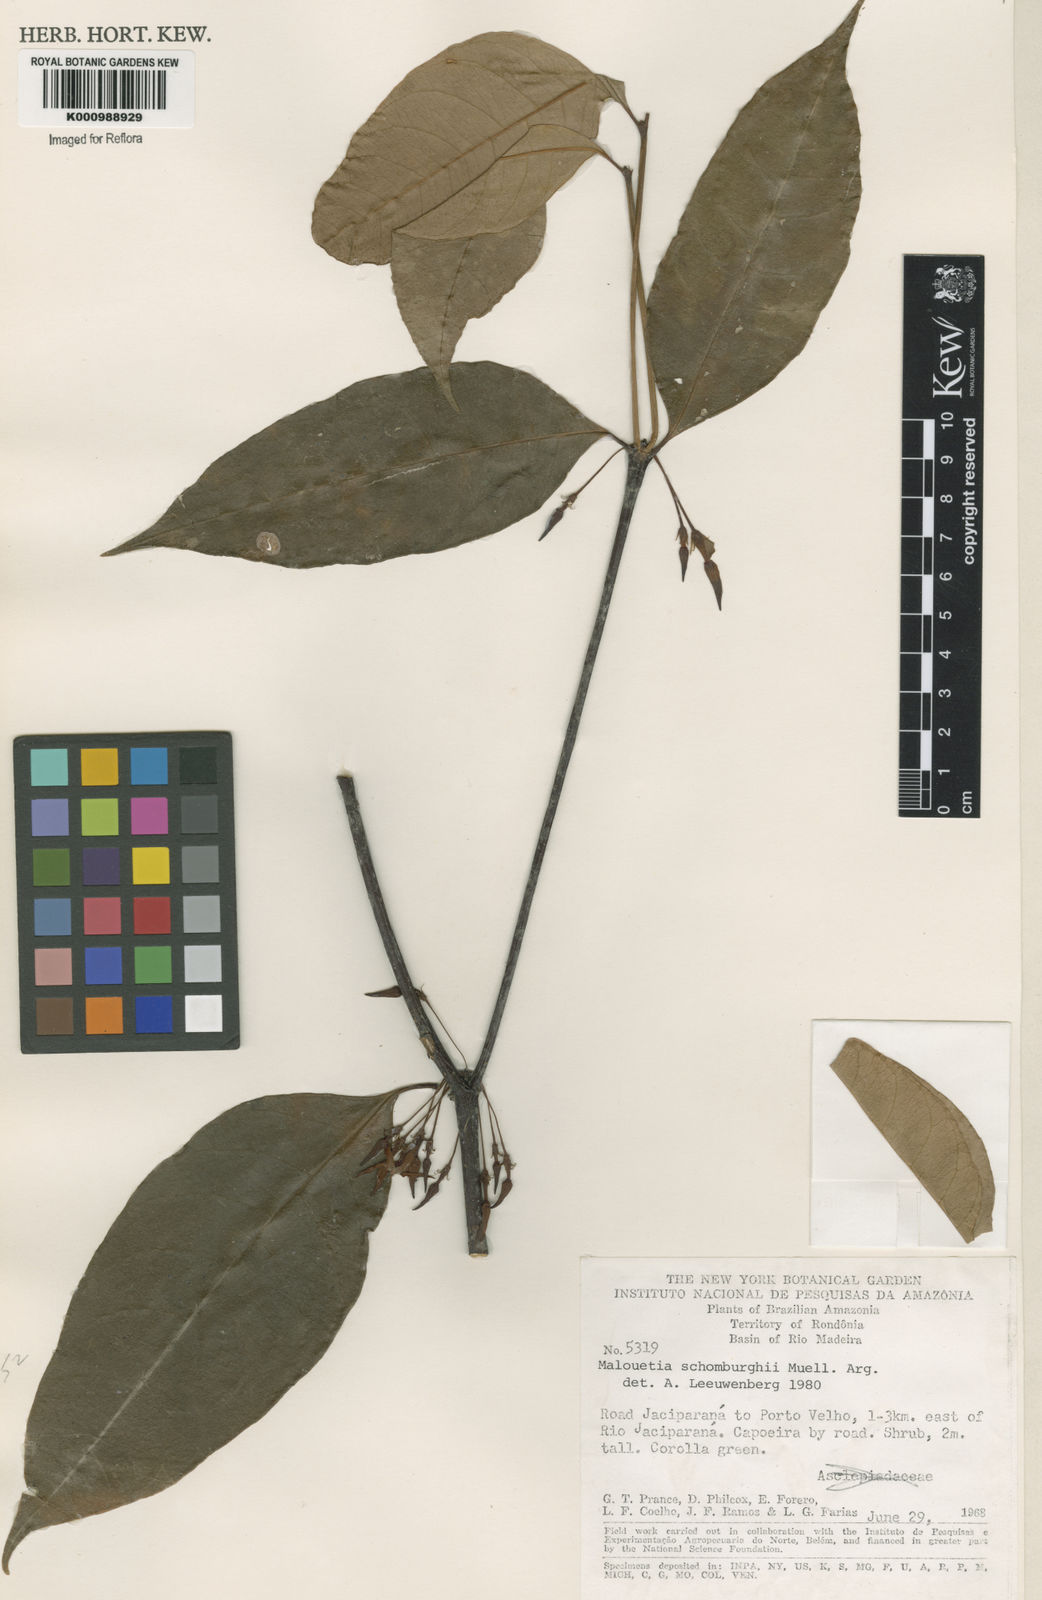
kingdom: Plantae
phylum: Tracheophyta
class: Magnoliopsida
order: Gentianales
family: Apocynaceae
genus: Malouetia
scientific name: Malouetia
